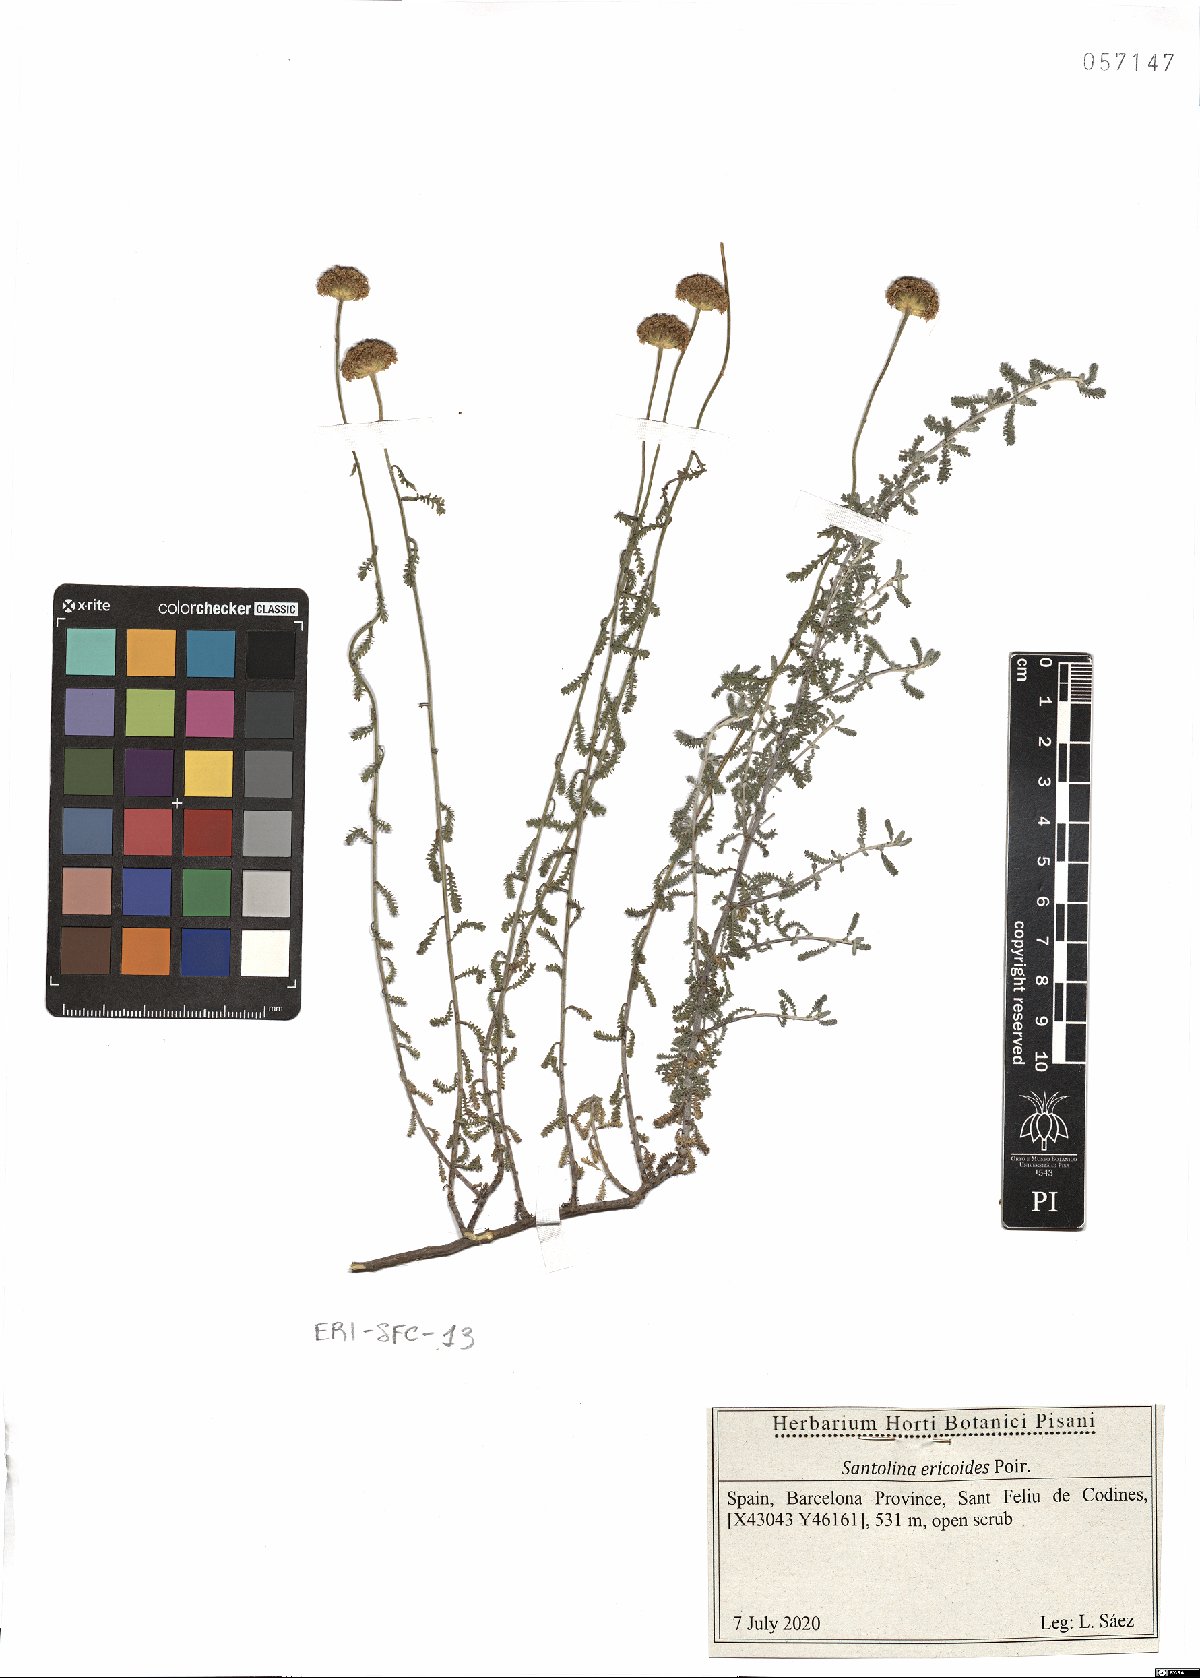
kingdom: Plantae
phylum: Tracheophyta
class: Magnoliopsida
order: Asterales
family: Asteraceae
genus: Santolina
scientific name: Santolina ericoides
